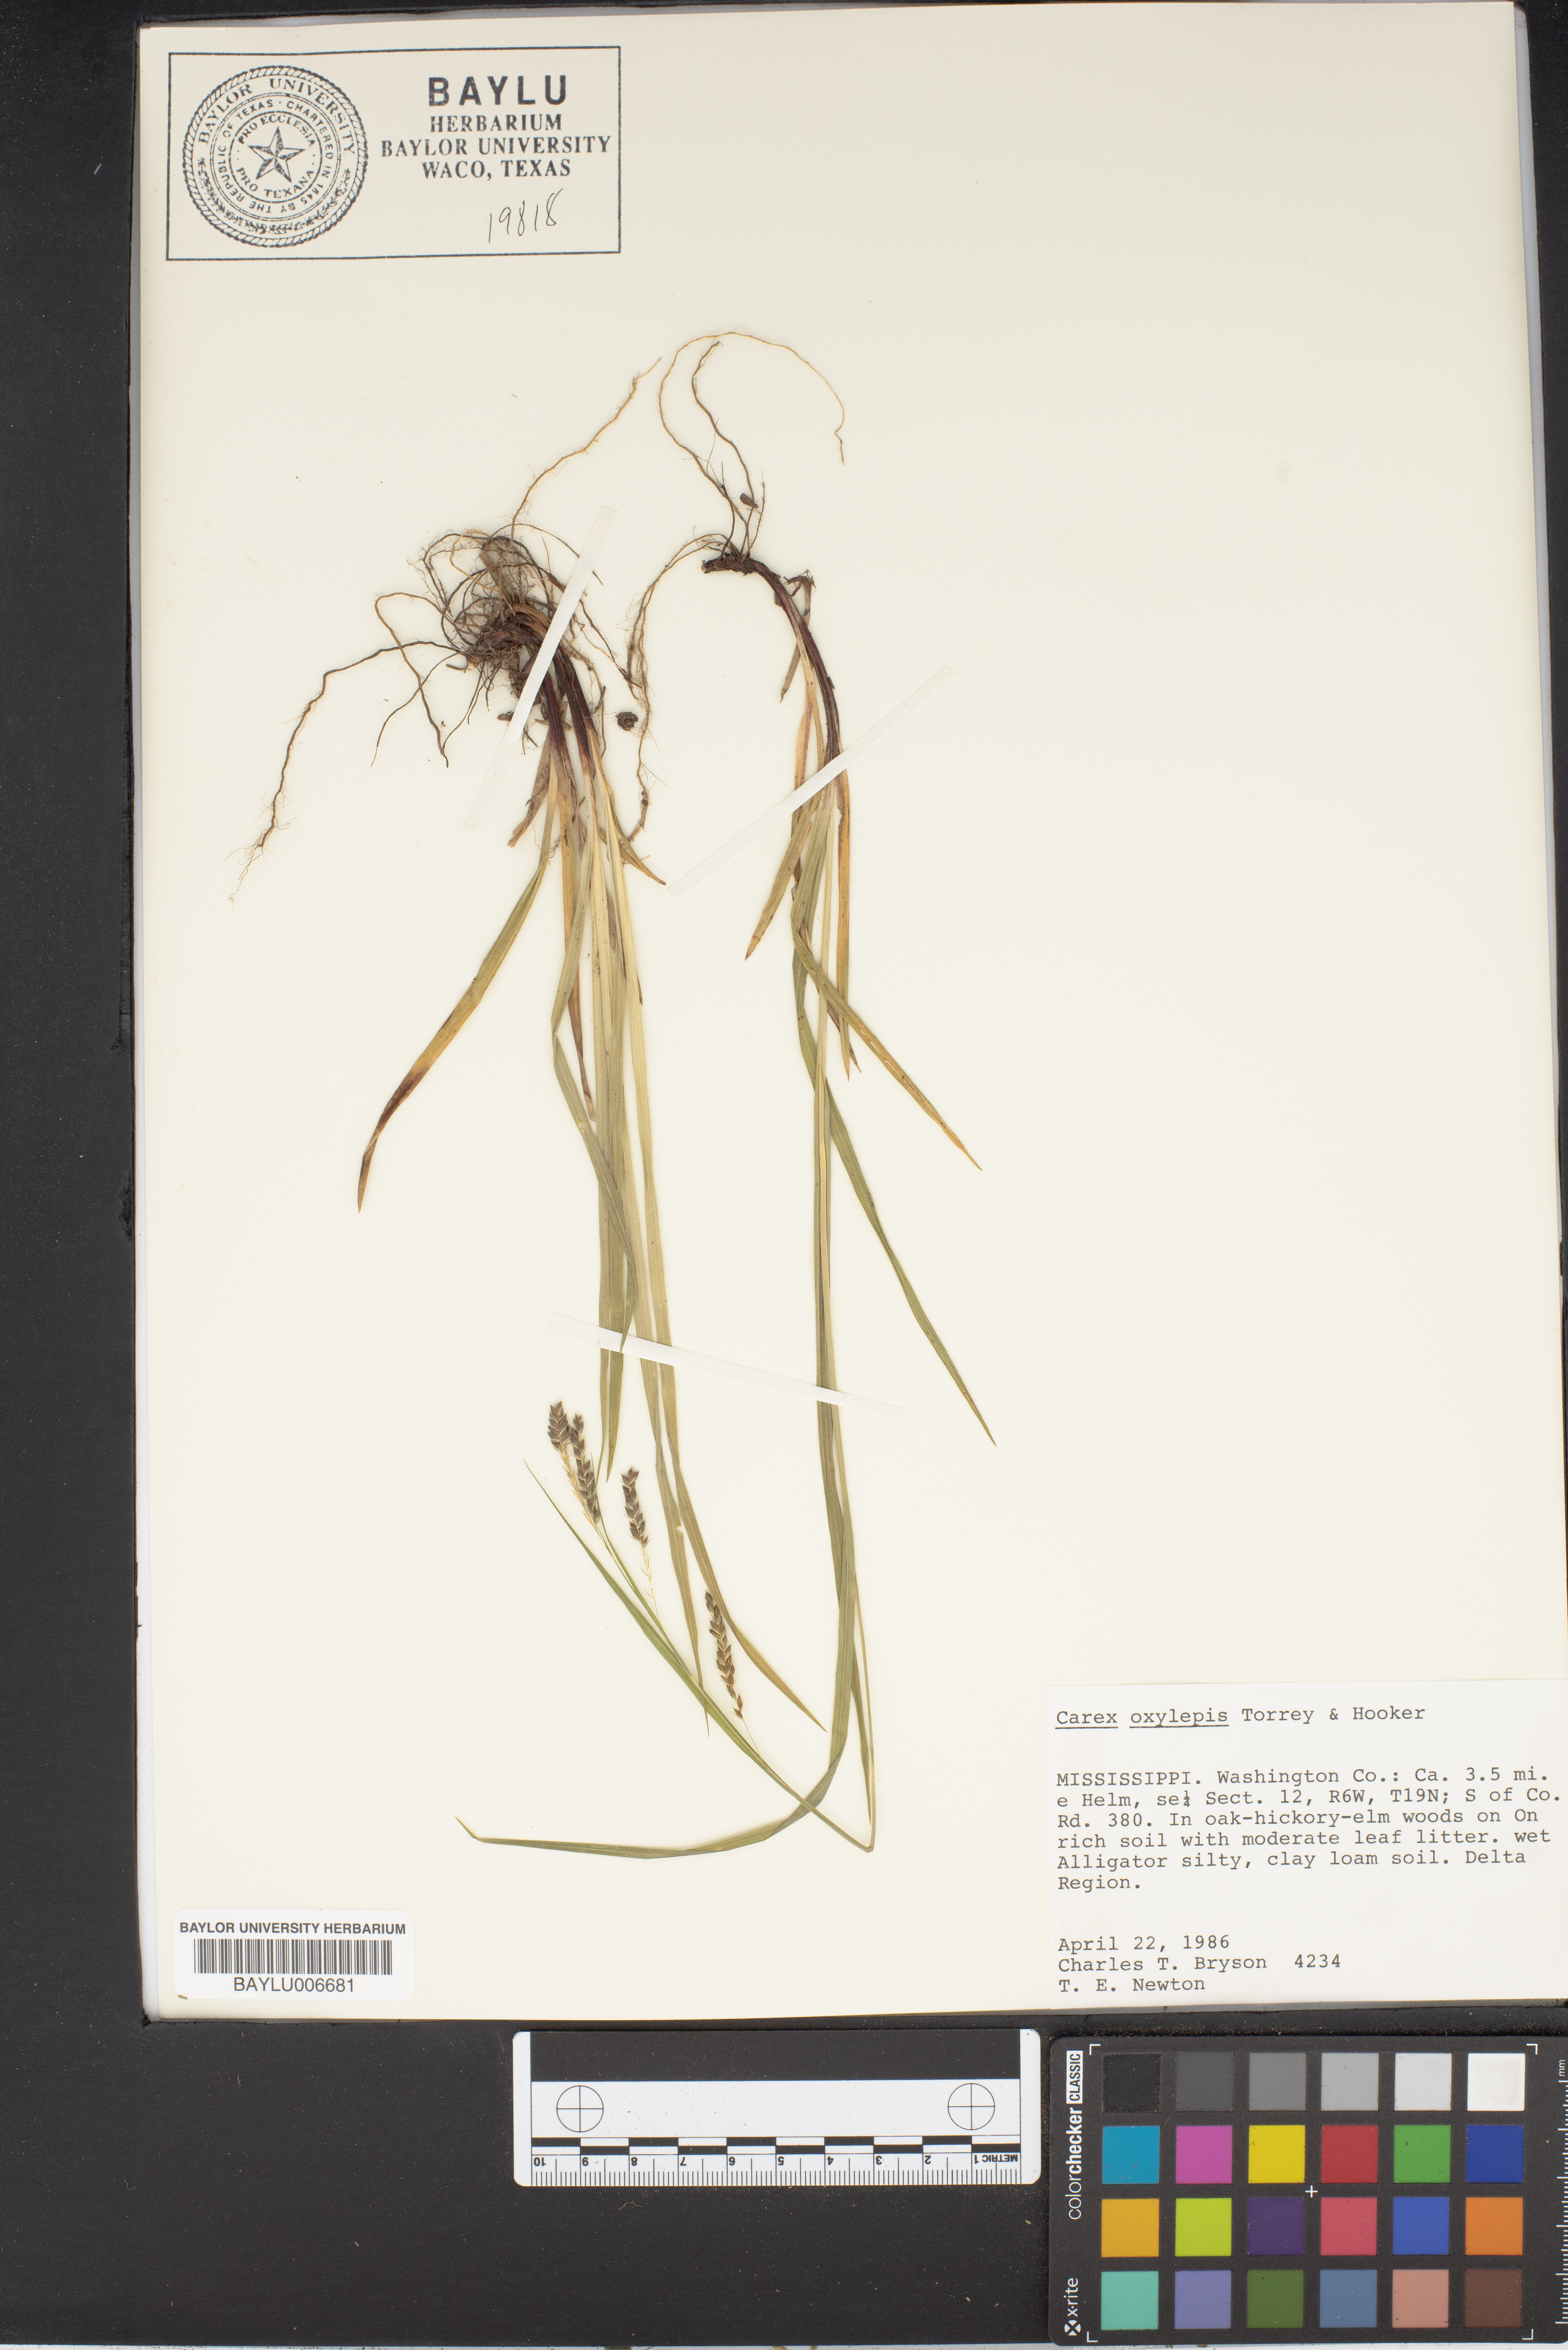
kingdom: Plantae
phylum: Tracheophyta
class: Liliopsida
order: Poales
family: Cyperaceae
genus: Carex
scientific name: Carex oxylepis
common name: Sharpscale sedge
